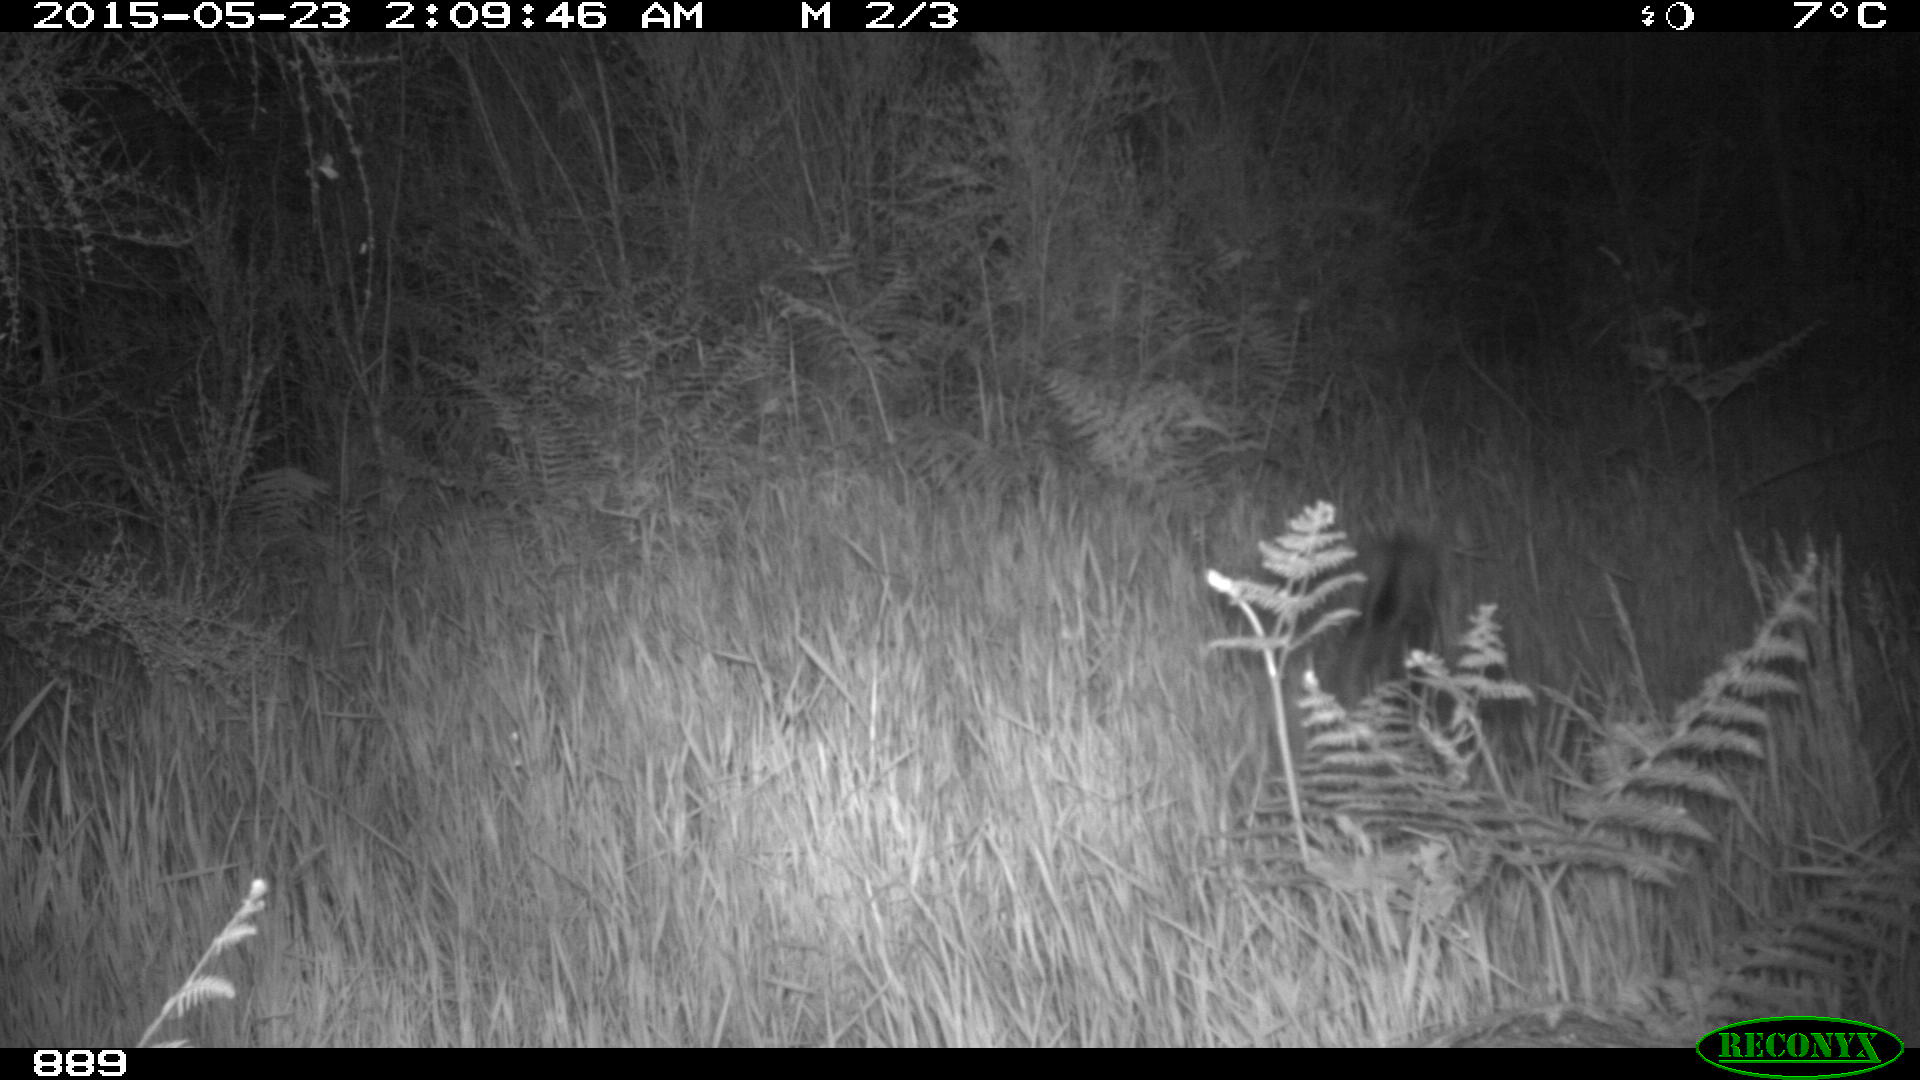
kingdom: Animalia
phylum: Chordata
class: Mammalia
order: Artiodactyla
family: Suidae
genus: Sus
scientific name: Sus scrofa
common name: Wild boar
